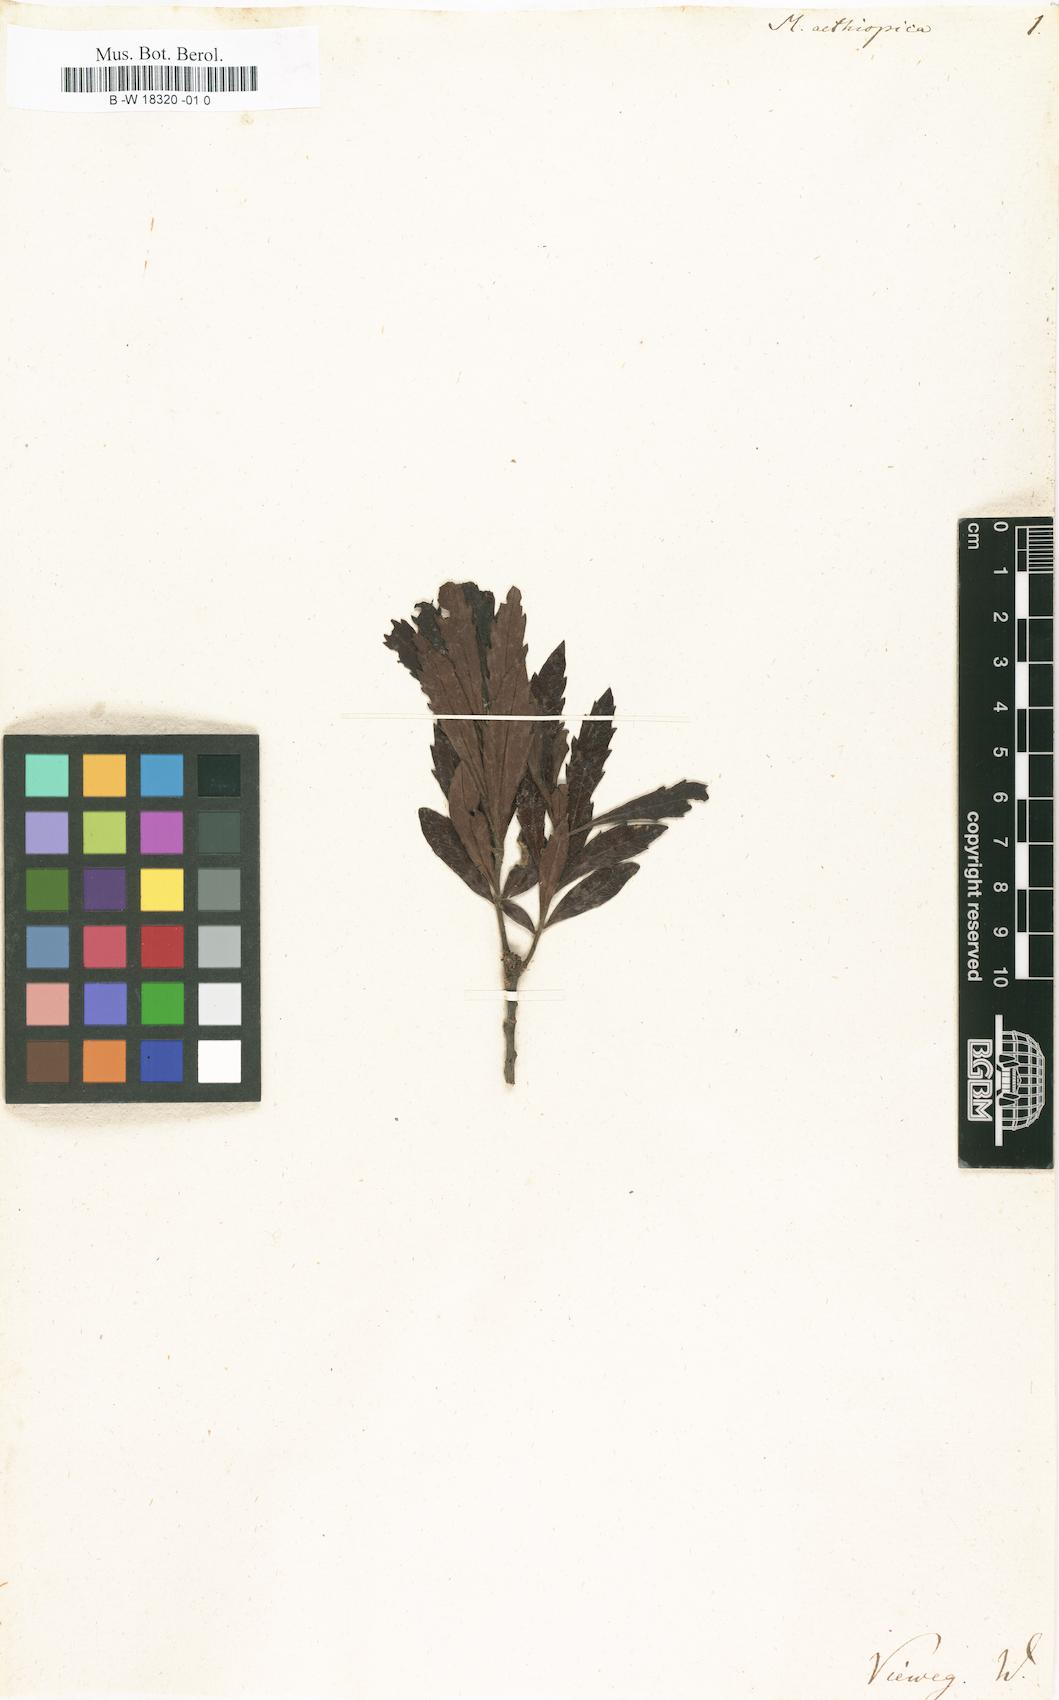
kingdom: Plantae
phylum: Tracheophyta
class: Magnoliopsida
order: Fagales
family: Myricaceae
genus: Morella
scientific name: Morella serrata
